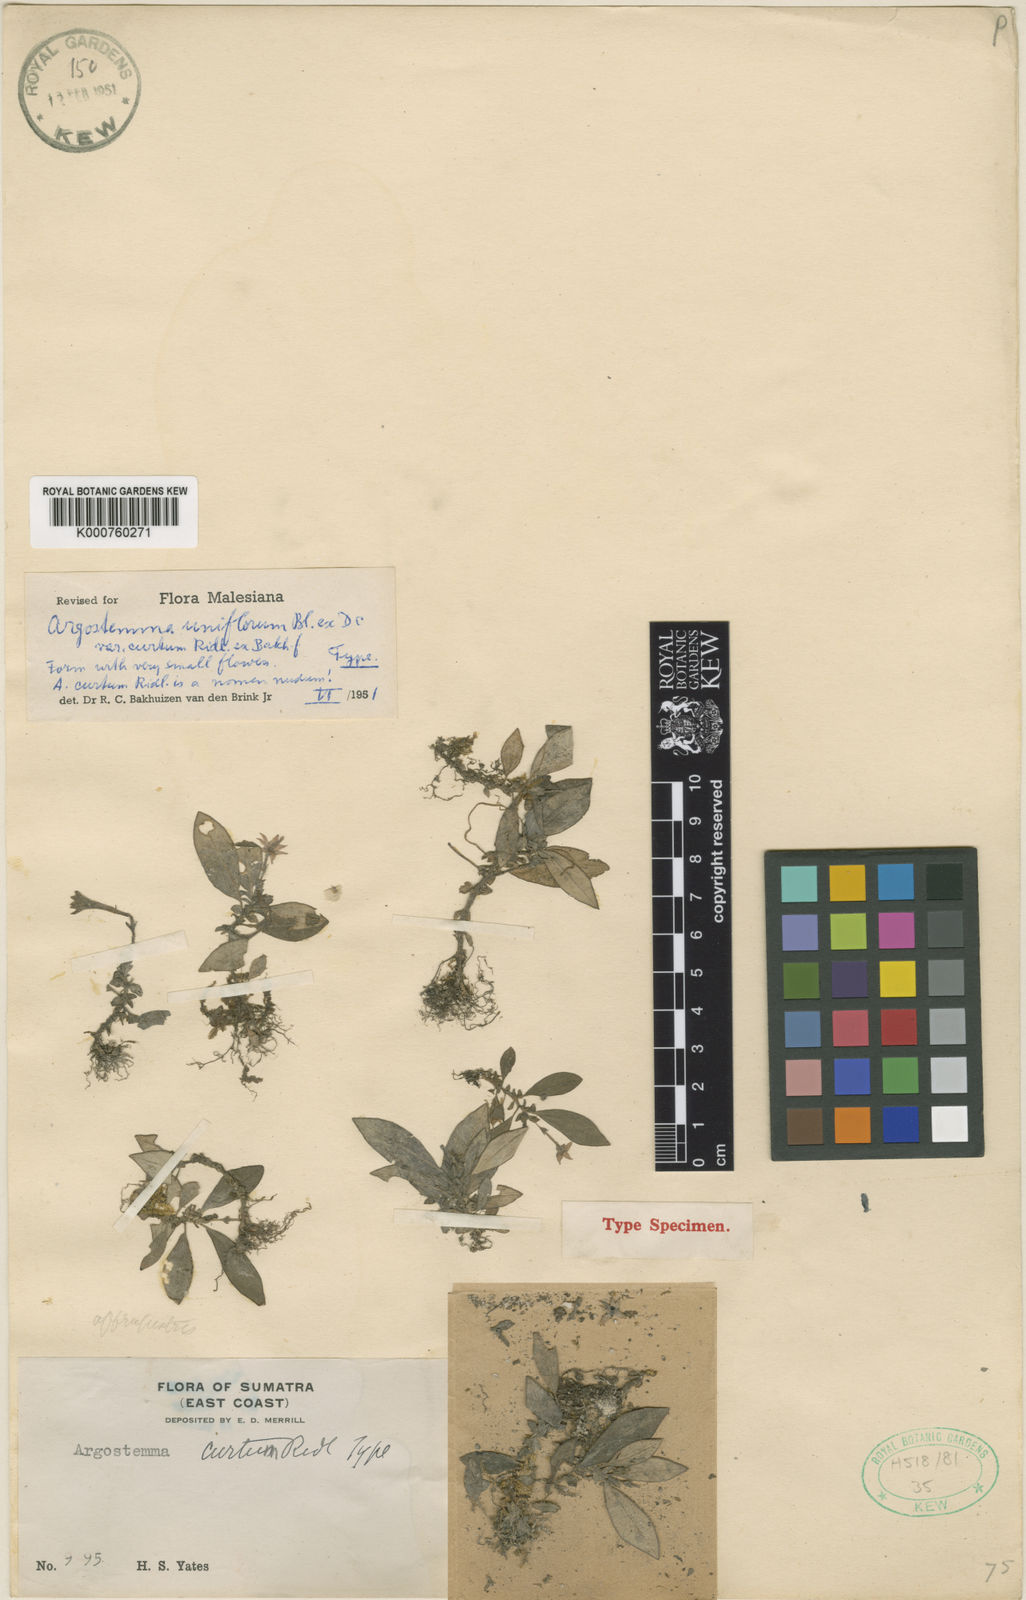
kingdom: Plantae
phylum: Tracheophyta
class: Magnoliopsida
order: Gentianales
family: Rubiaceae
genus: Argostemma
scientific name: Argostemma uniflorum
